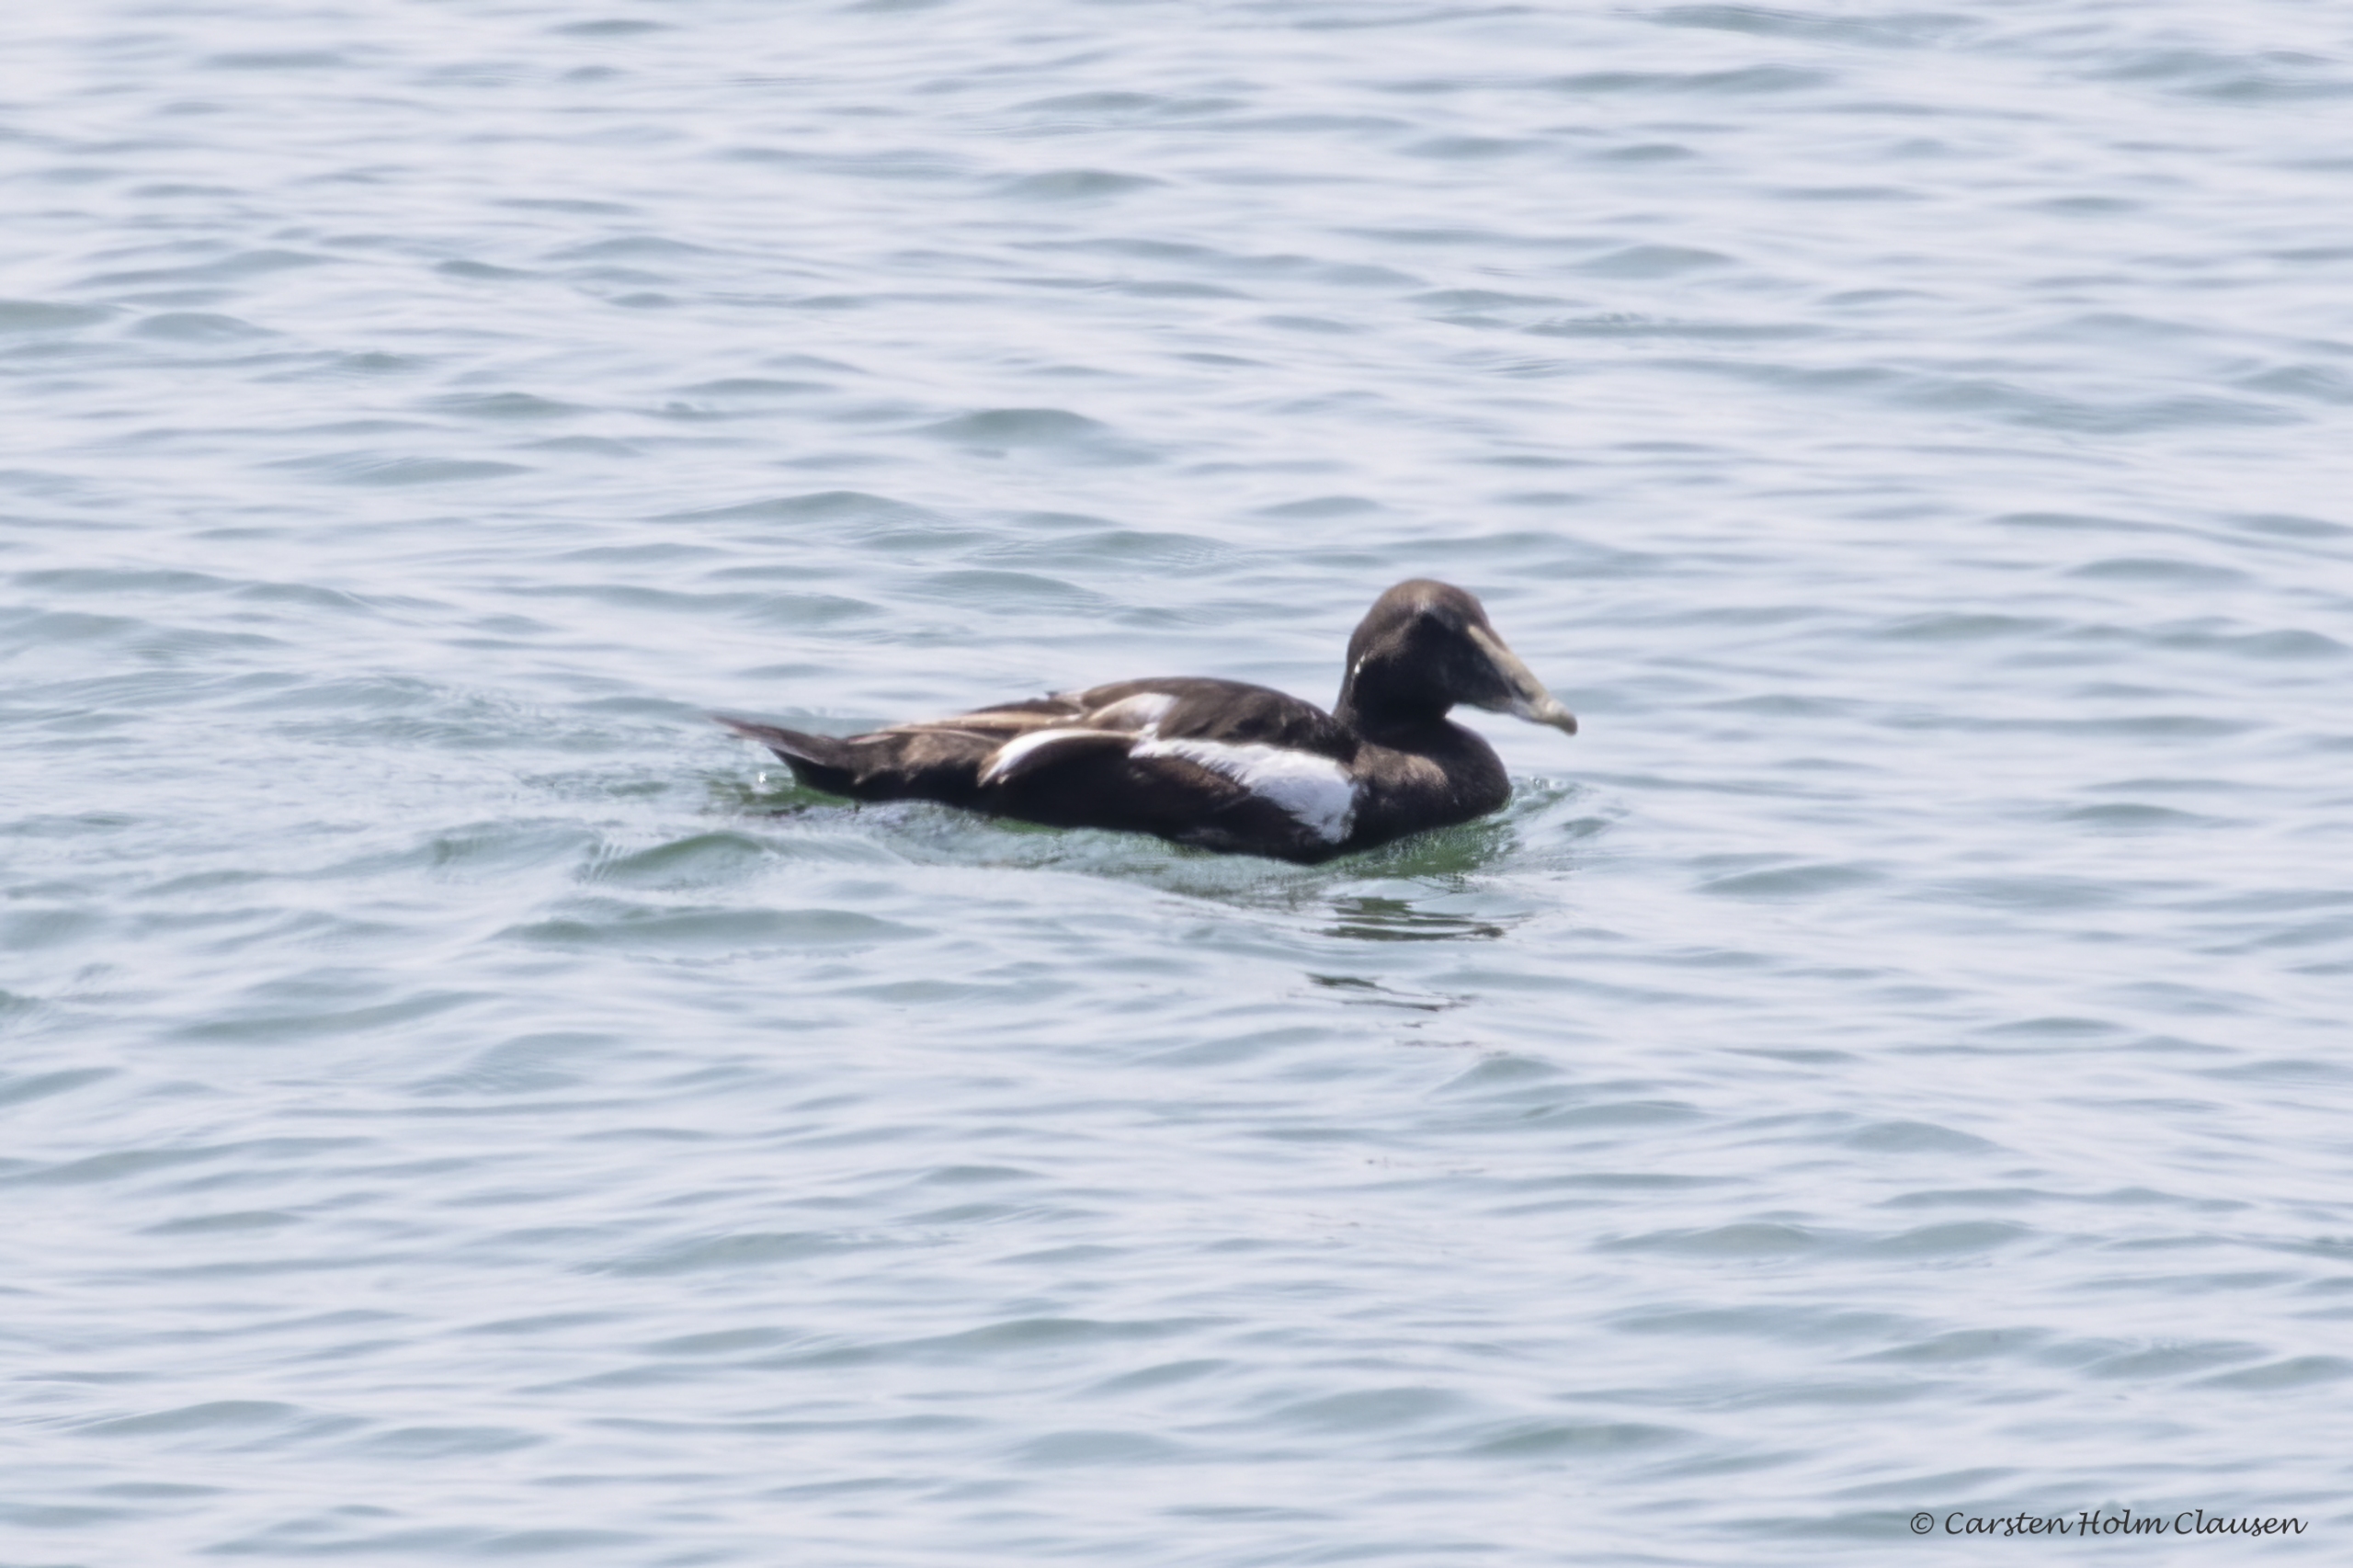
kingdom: Animalia
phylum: Chordata
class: Aves
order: Anseriformes
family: Anatidae
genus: Somateria
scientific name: Somateria mollissima
